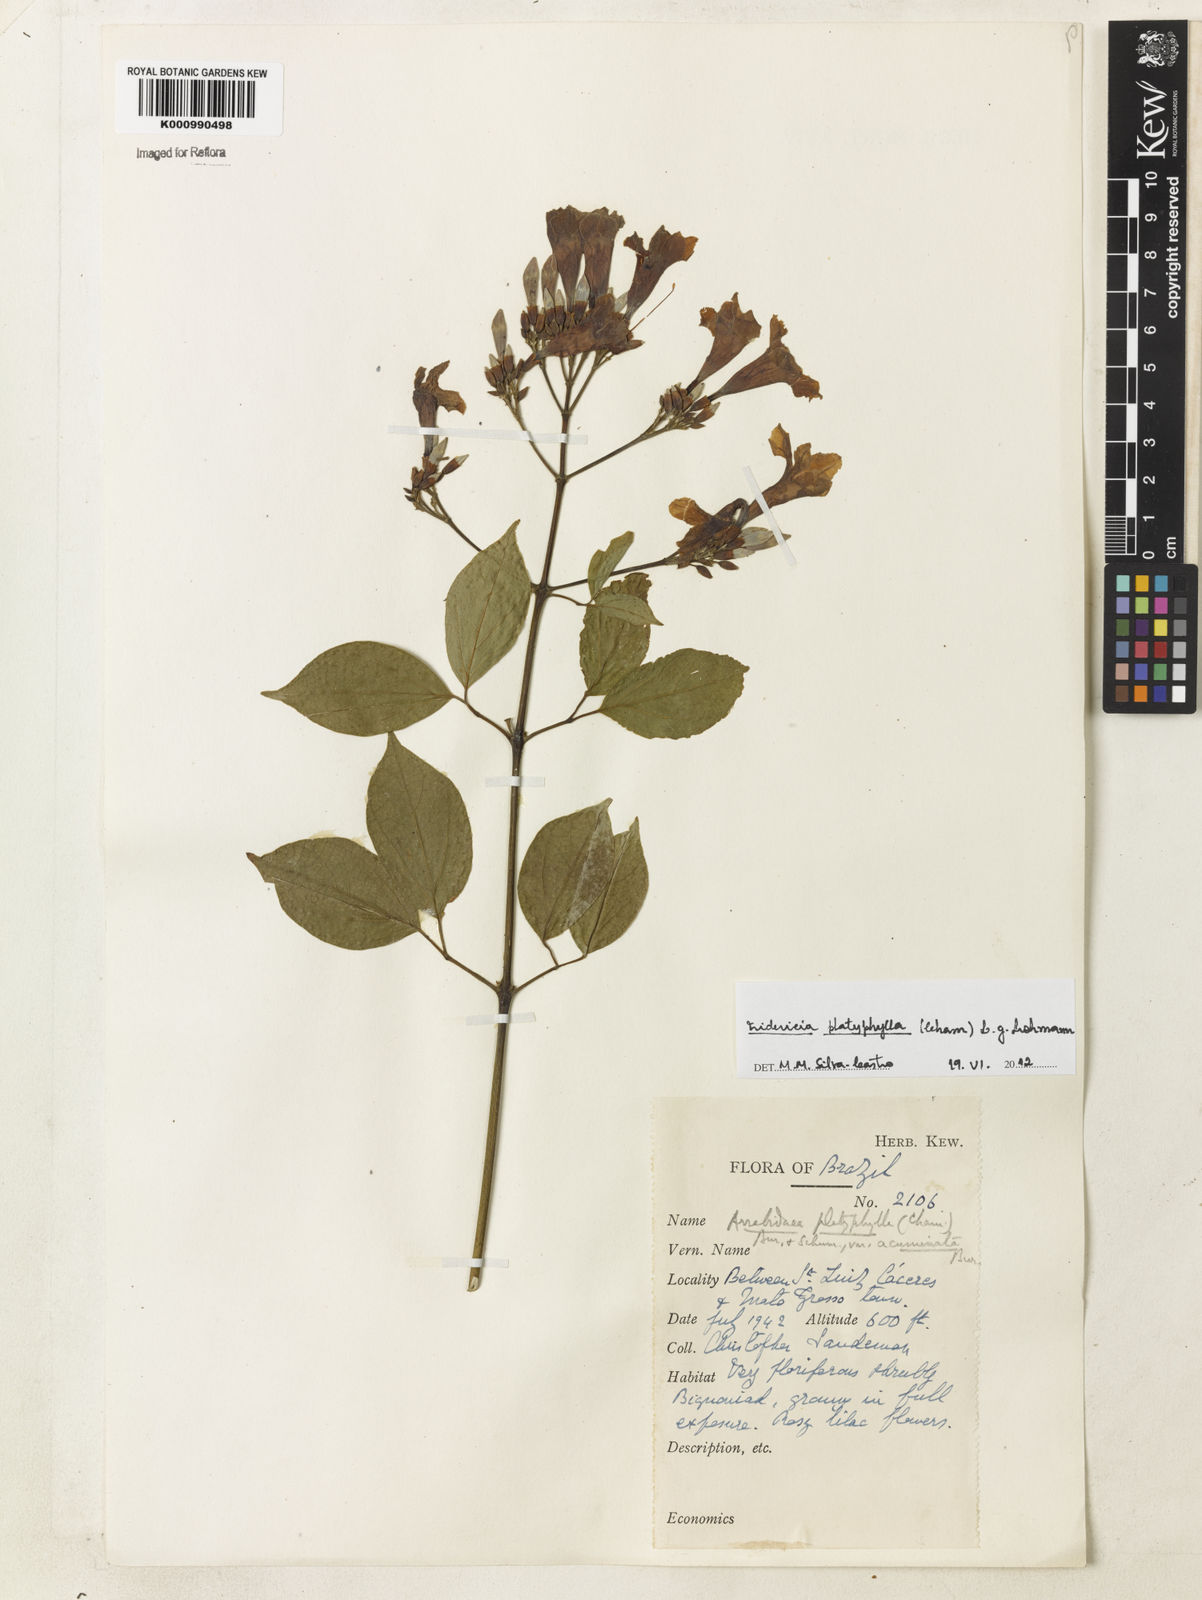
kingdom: Plantae
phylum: Tracheophyta
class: Magnoliopsida
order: Lamiales
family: Bignoniaceae
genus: Fridericia
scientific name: Fridericia platyphylla
